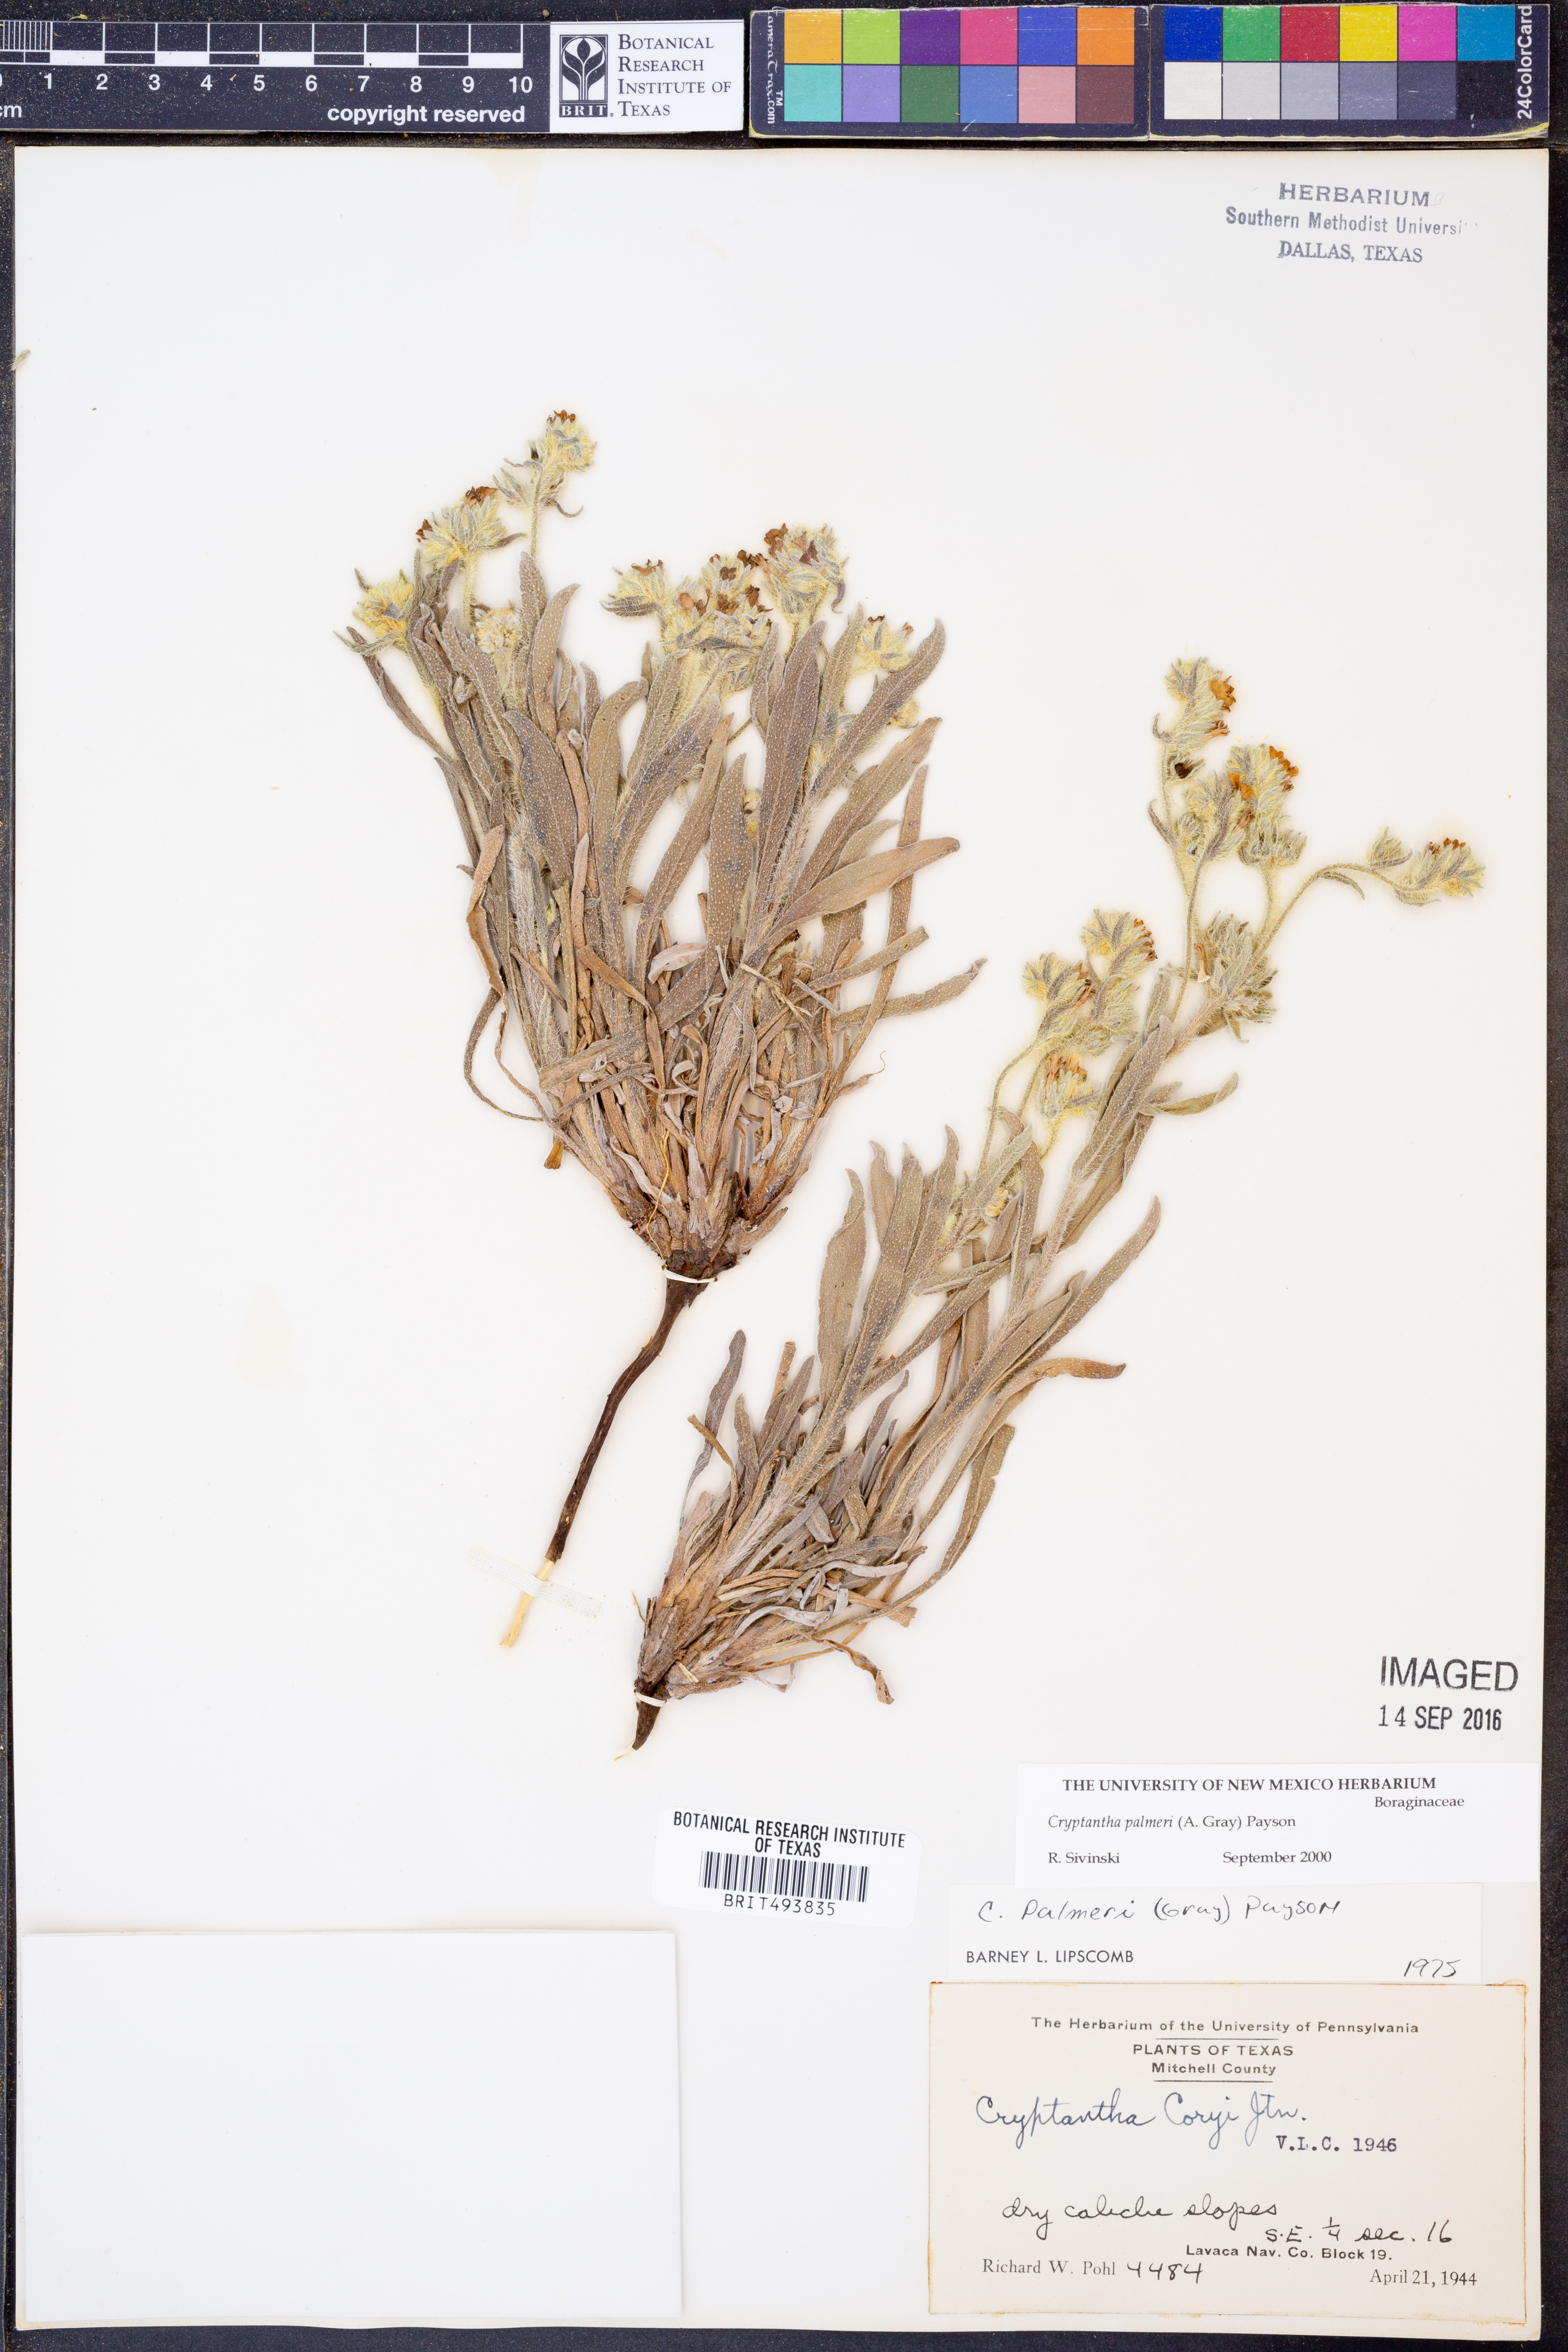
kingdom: Plantae
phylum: Tracheophyta
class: Magnoliopsida
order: Boraginales
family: Boraginaceae
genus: Oreocarya
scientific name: Oreocarya palmeri
